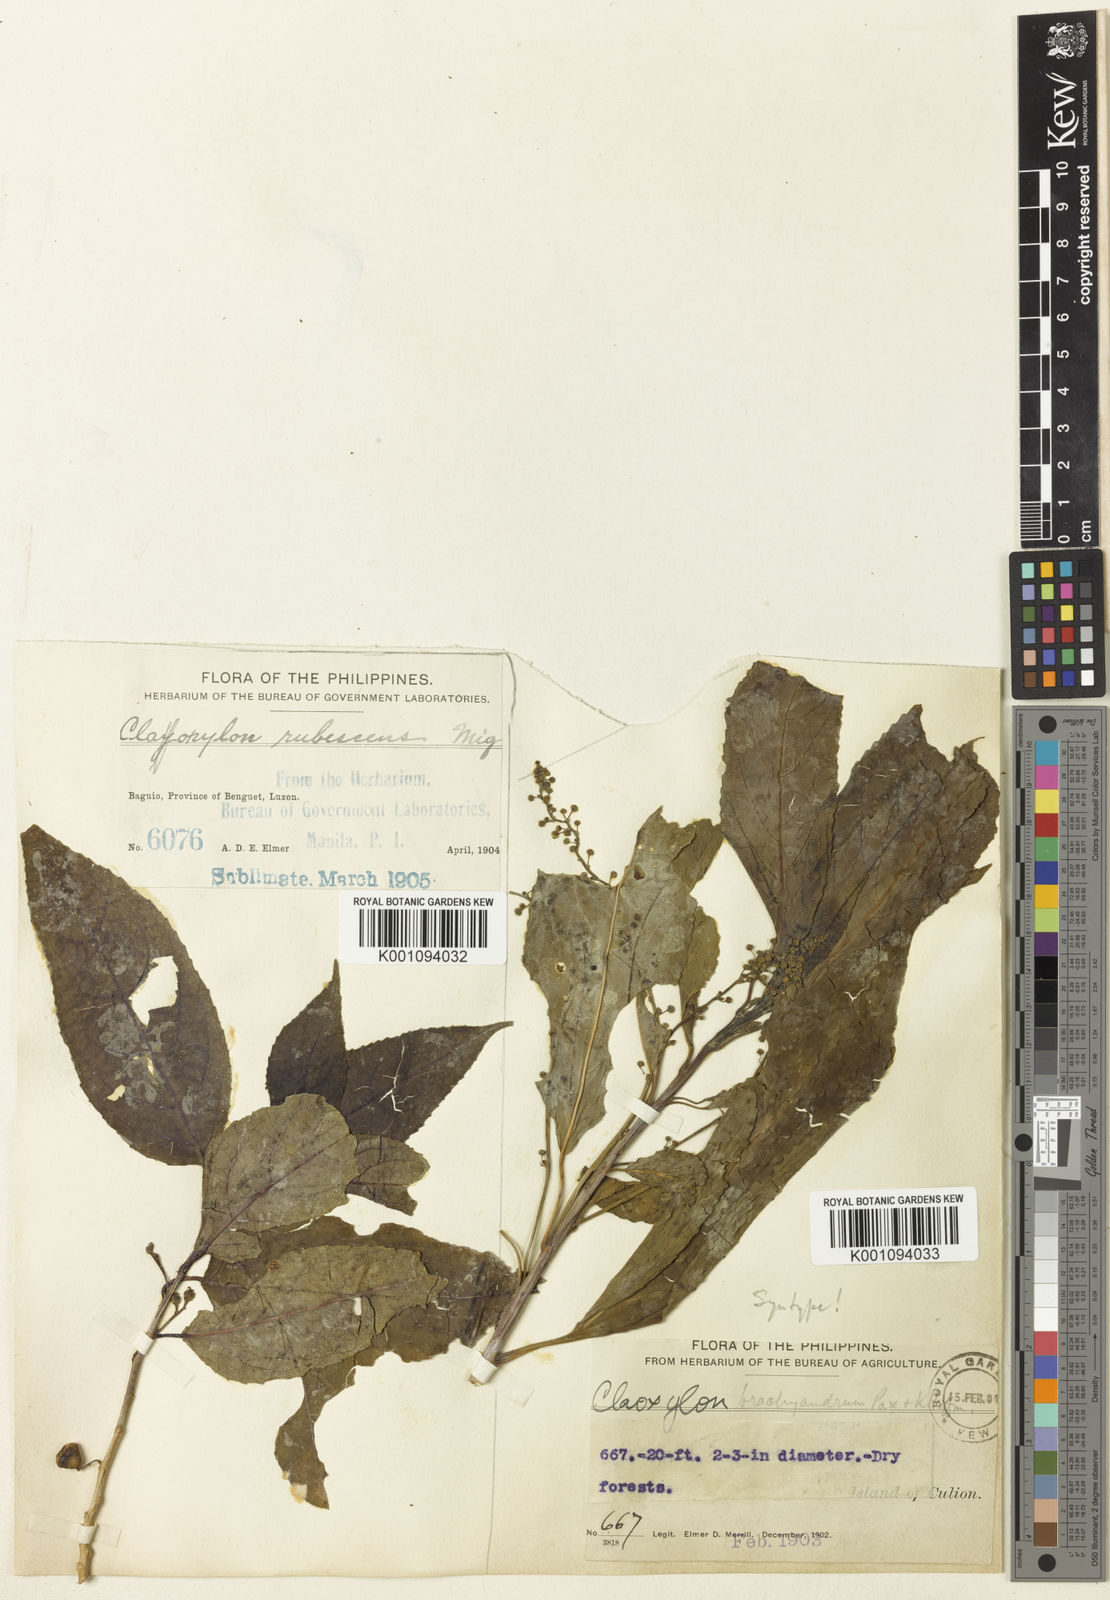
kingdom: Plantae
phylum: Tracheophyta
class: Magnoliopsida
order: Malpighiales
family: Euphorbiaceae
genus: Claoxylon
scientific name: Claoxylon brachyandrum
